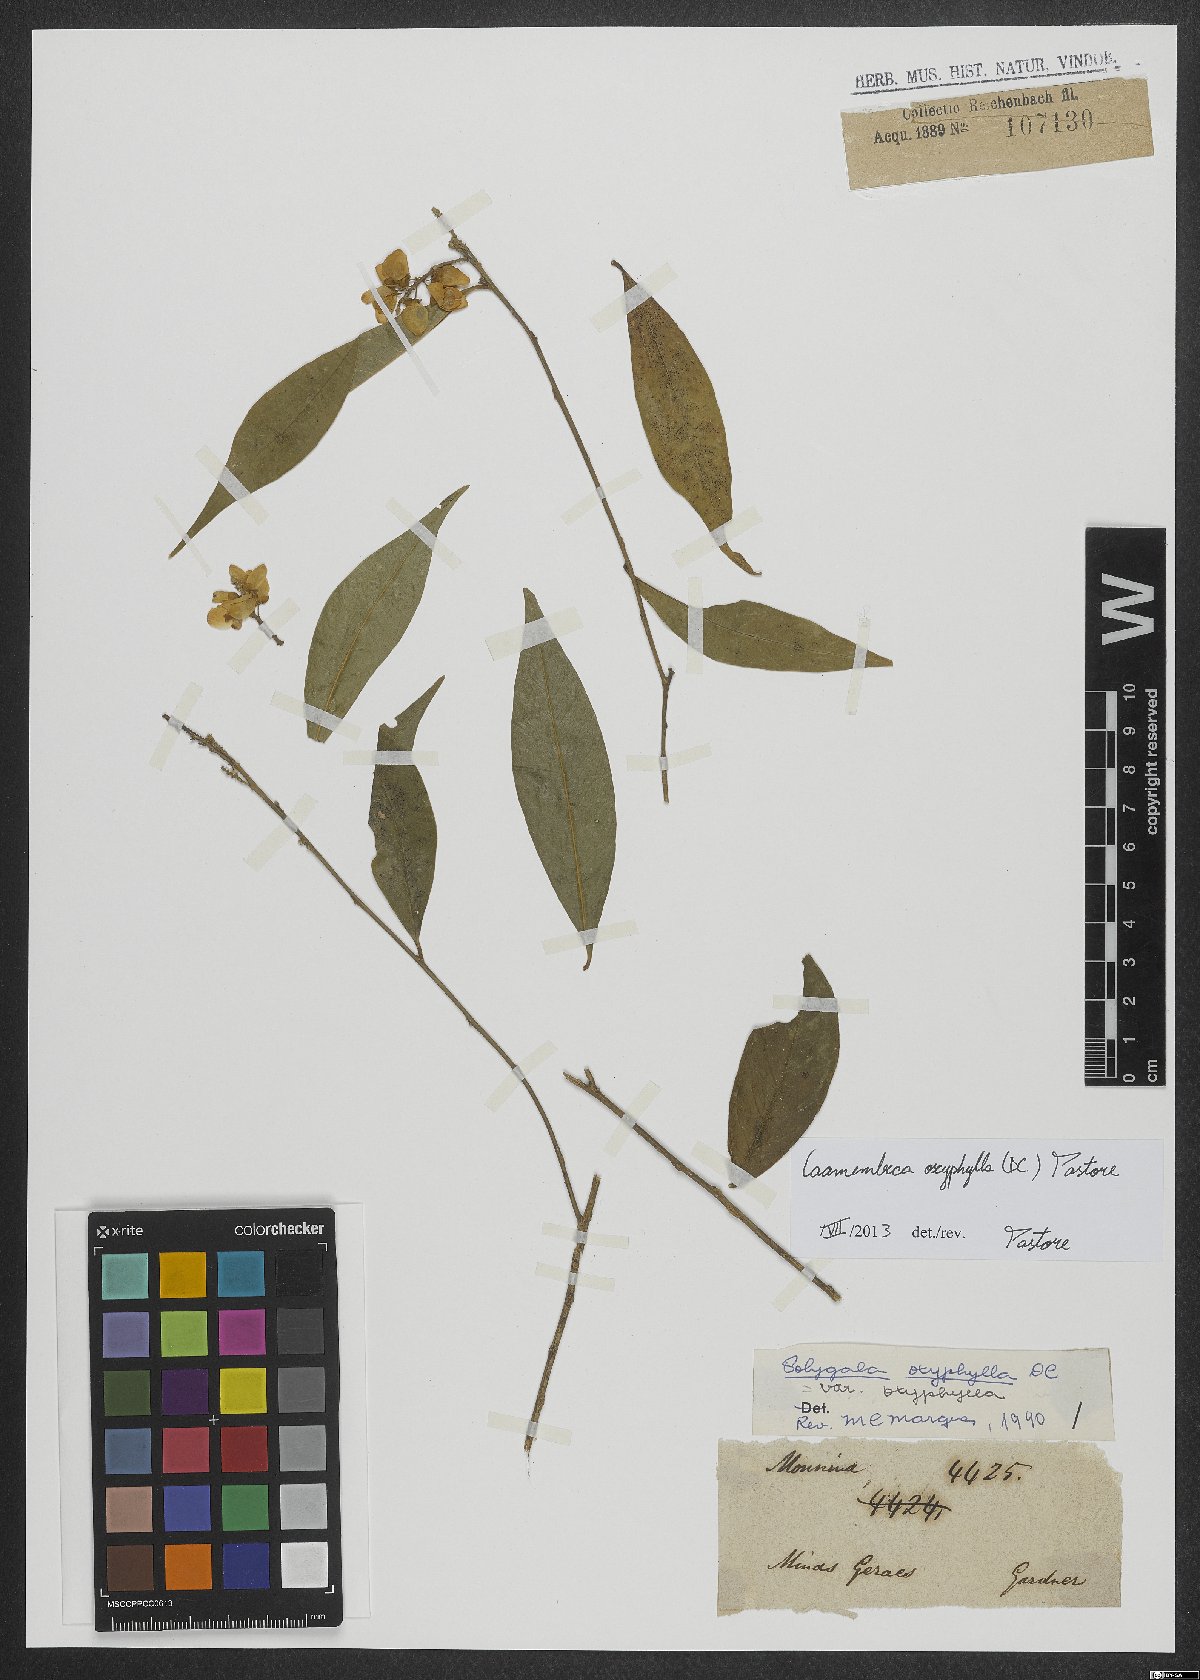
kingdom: Plantae
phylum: Tracheophyta
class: Magnoliopsida
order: Fabales
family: Polygalaceae
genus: Caamembeca
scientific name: Caamembeca oxyphylla
